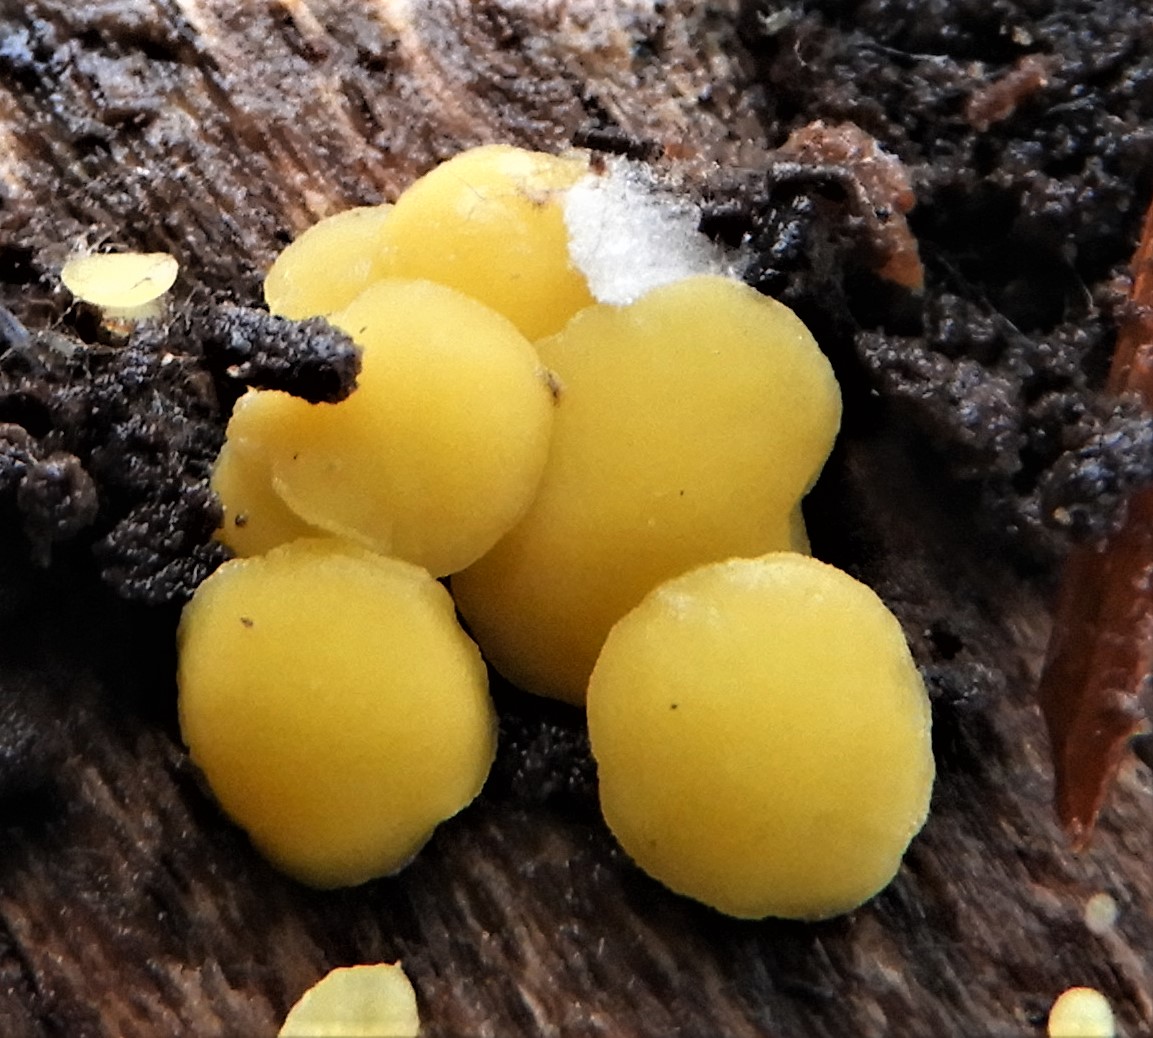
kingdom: Fungi
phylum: Ascomycota
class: Leotiomycetes
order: Helotiales
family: Pezizellaceae
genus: Calycina
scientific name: Calycina citrina
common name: almindelig gulskive
